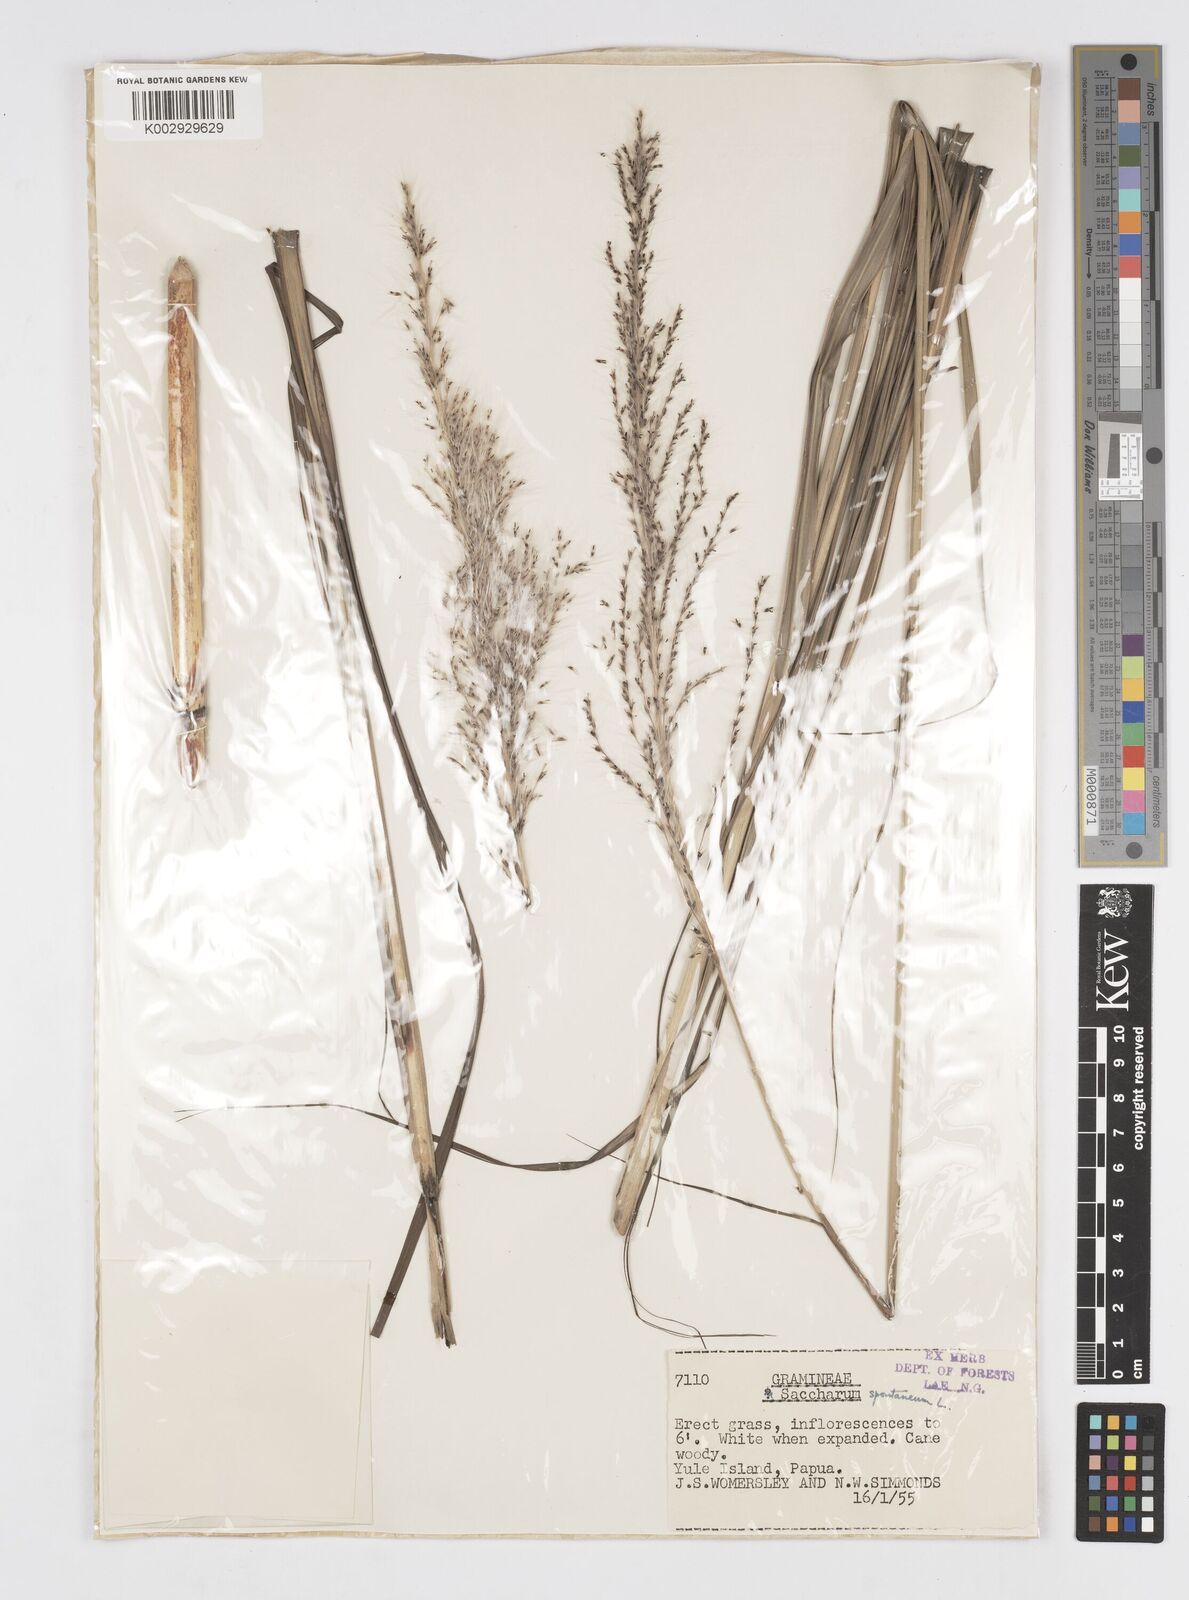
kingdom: Plantae
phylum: Tracheophyta
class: Liliopsida
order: Poales
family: Poaceae
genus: Saccharum
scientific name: Saccharum spontaneum
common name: Wild sugarcane
